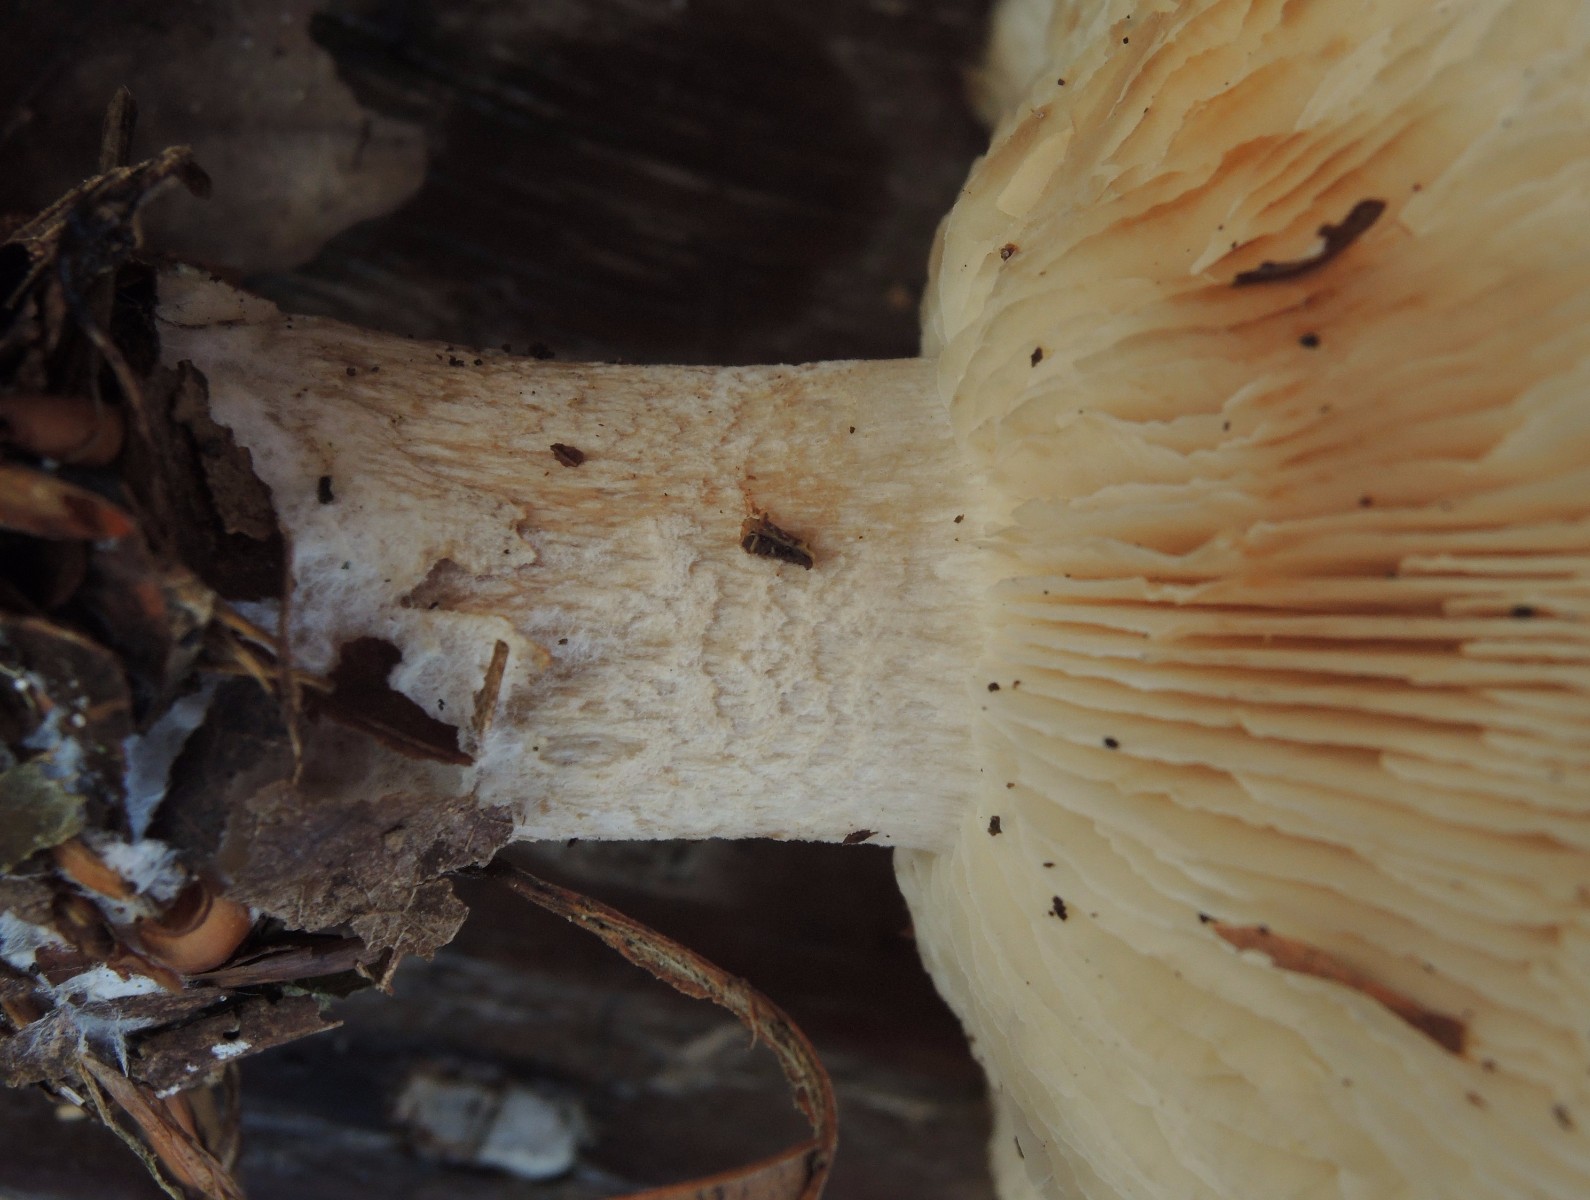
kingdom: Fungi
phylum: Basidiomycota
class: Agaricomycetes
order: Agaricales
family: Tricholomataceae
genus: Clitocybe
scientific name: Clitocybe nebularis
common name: tåge-tragthat
